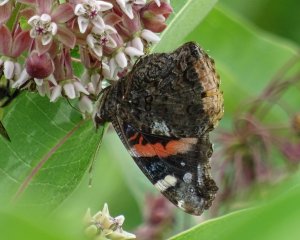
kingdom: Animalia
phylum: Arthropoda
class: Insecta
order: Lepidoptera
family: Nymphalidae
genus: Vanessa
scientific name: Vanessa atalanta
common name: Red Admiral
